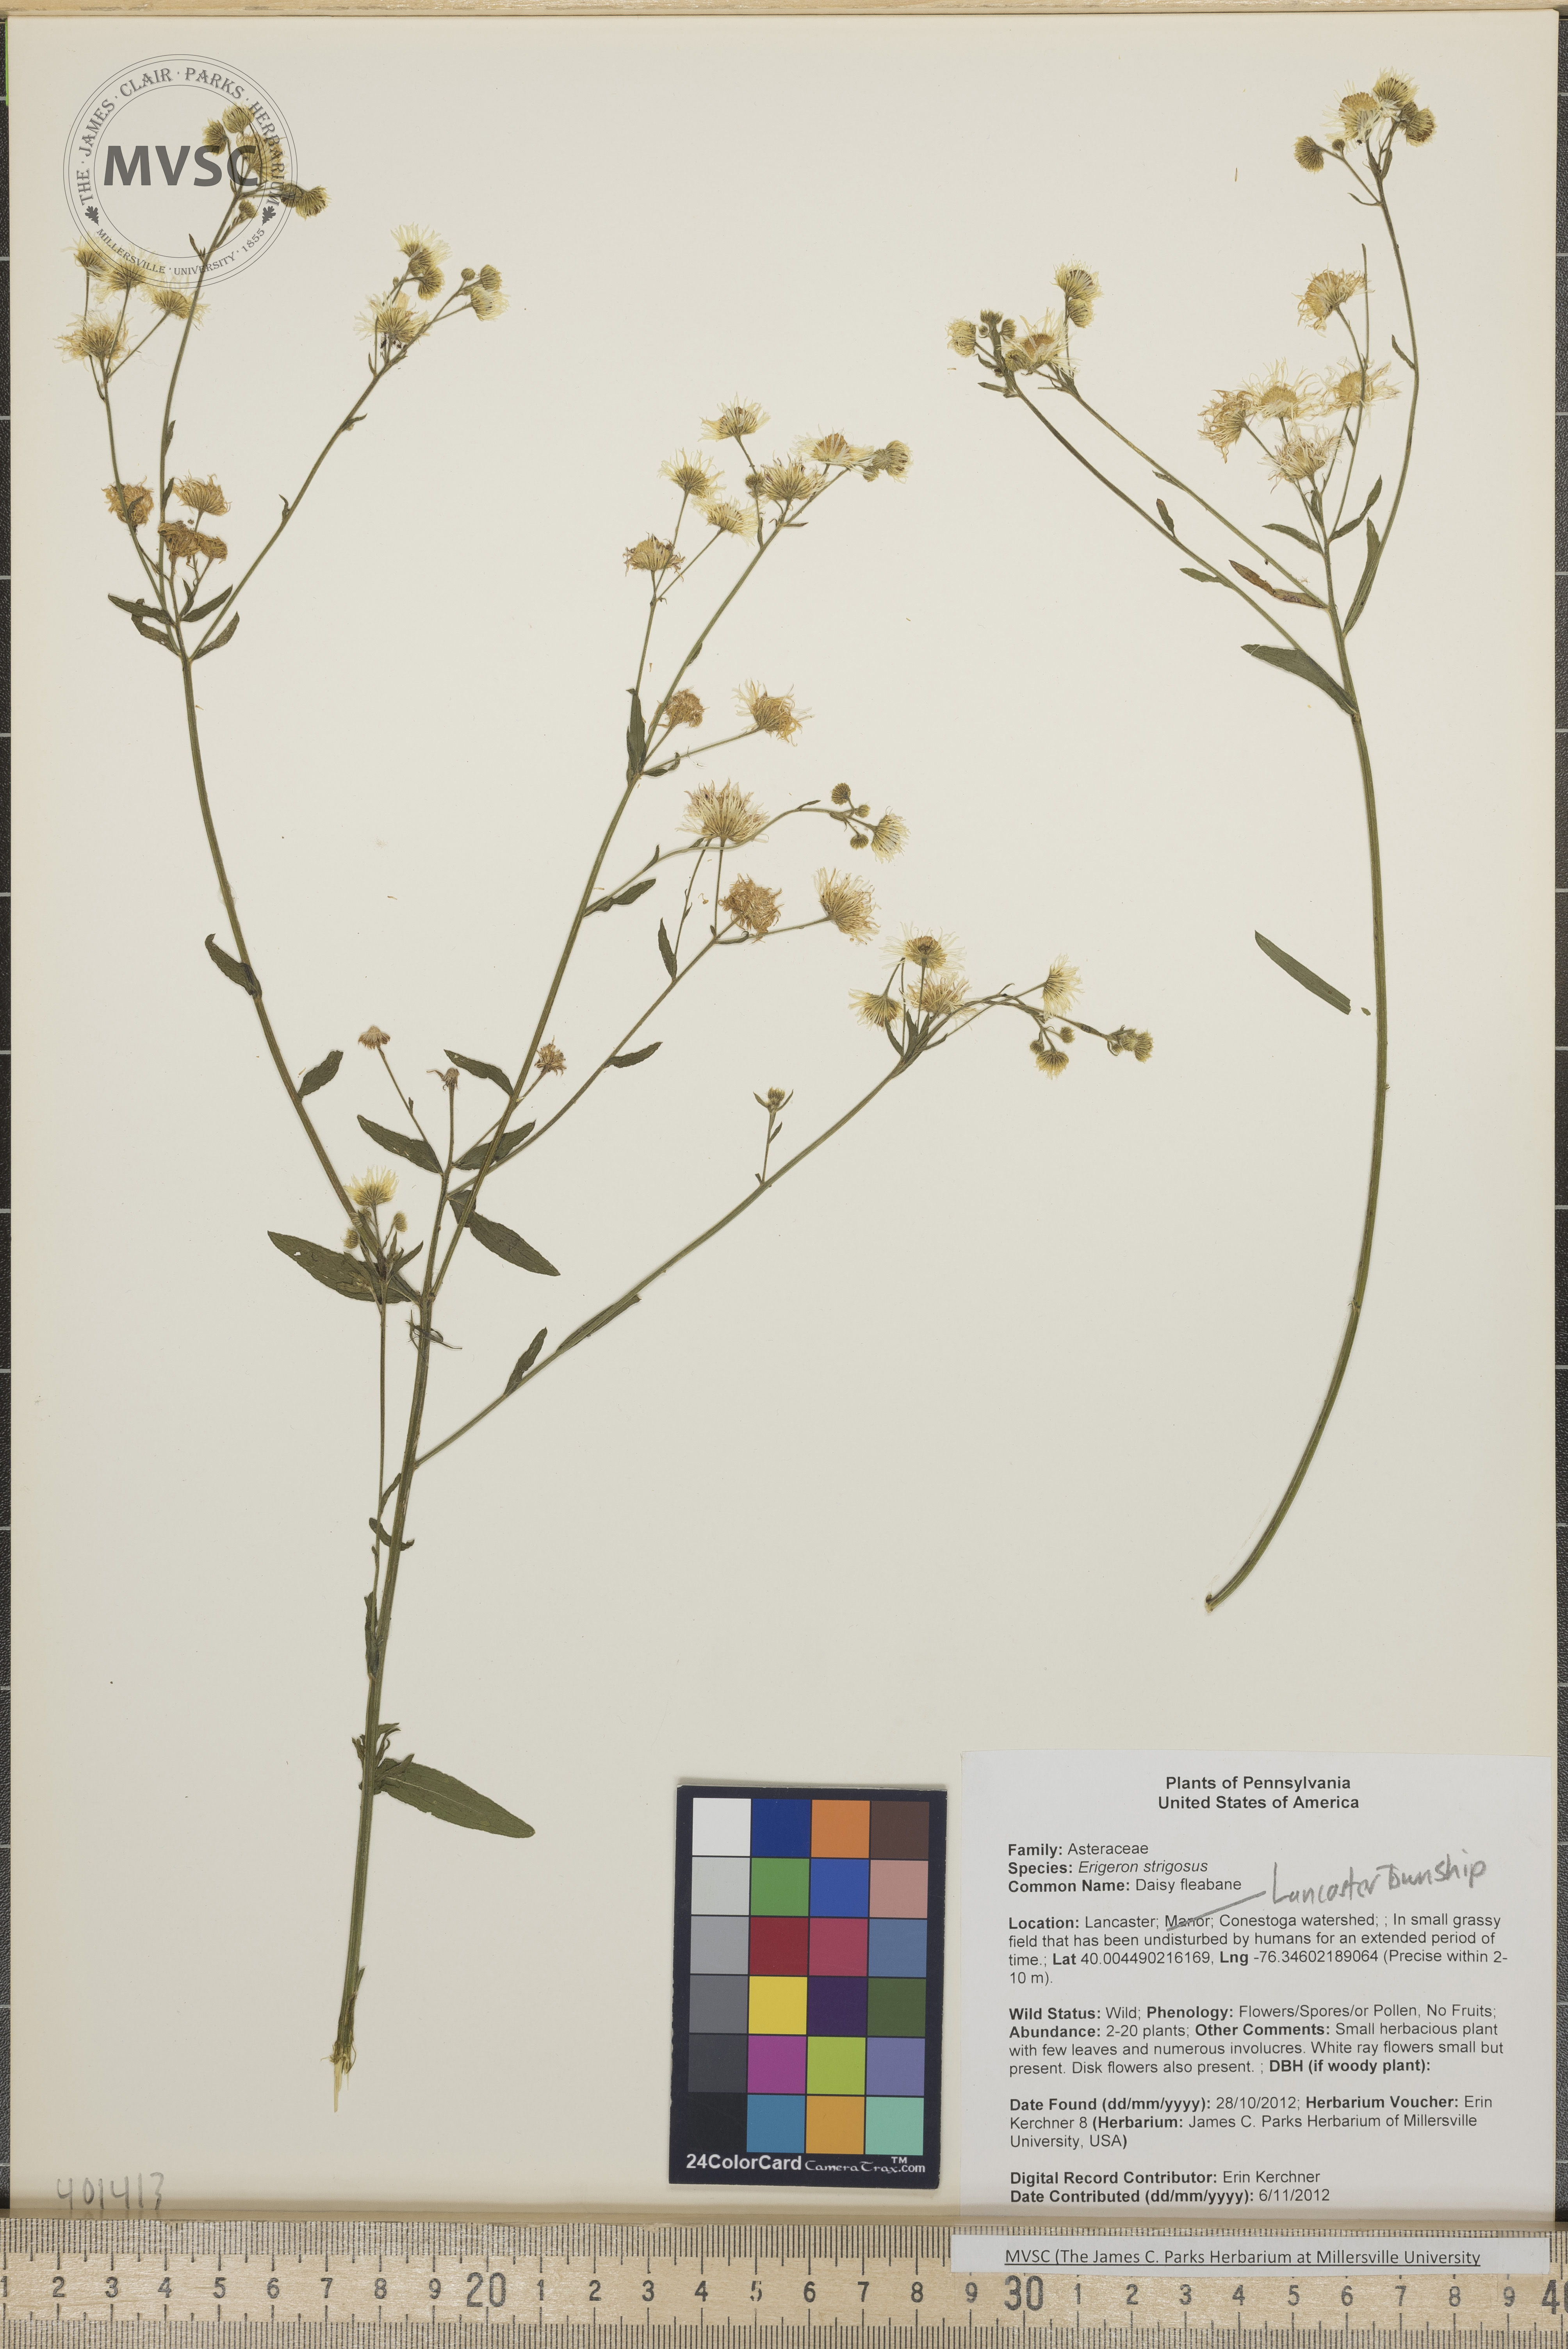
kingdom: Plantae
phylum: Tracheophyta
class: Magnoliopsida
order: Asterales
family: Asteraceae
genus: Erigeron
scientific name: Erigeron strigosus
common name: Daisy fleabane
